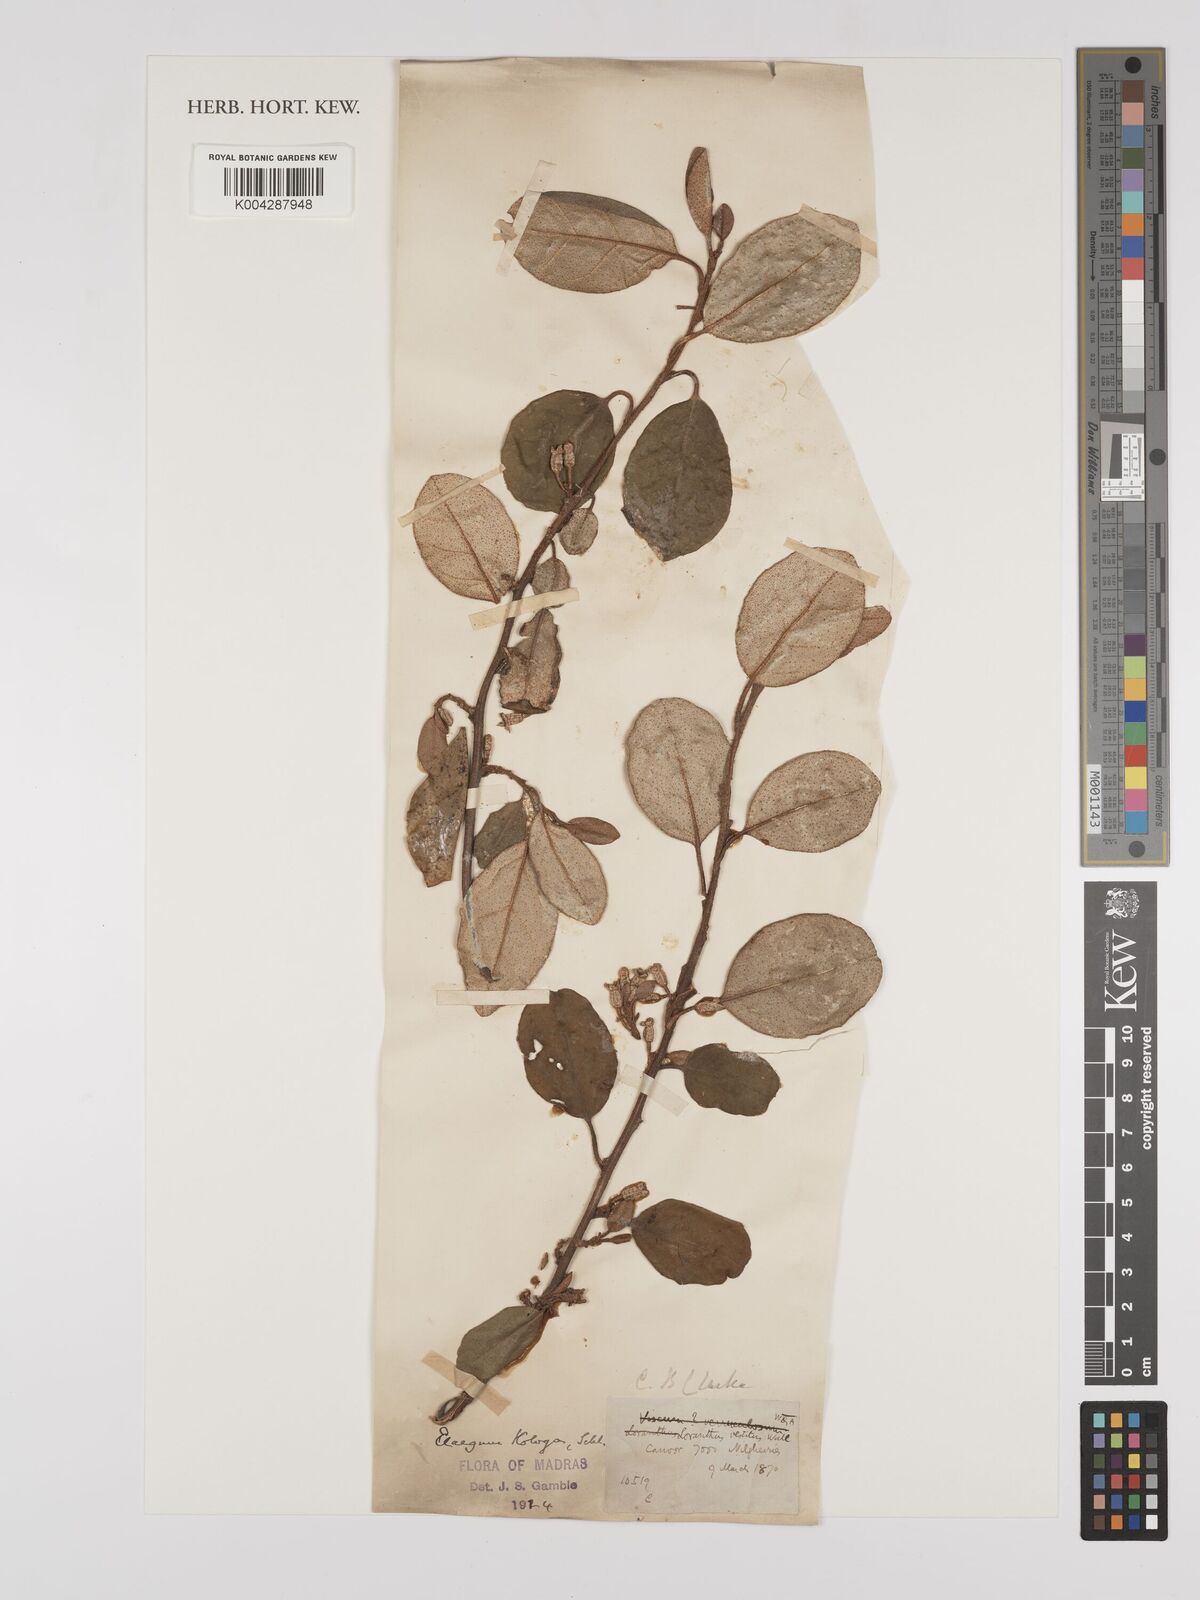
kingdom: Plantae
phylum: Tracheophyta
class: Magnoliopsida
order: Rosales
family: Elaeagnaceae
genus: Elaeagnus
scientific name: Elaeagnus latifolia
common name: Oleaster
